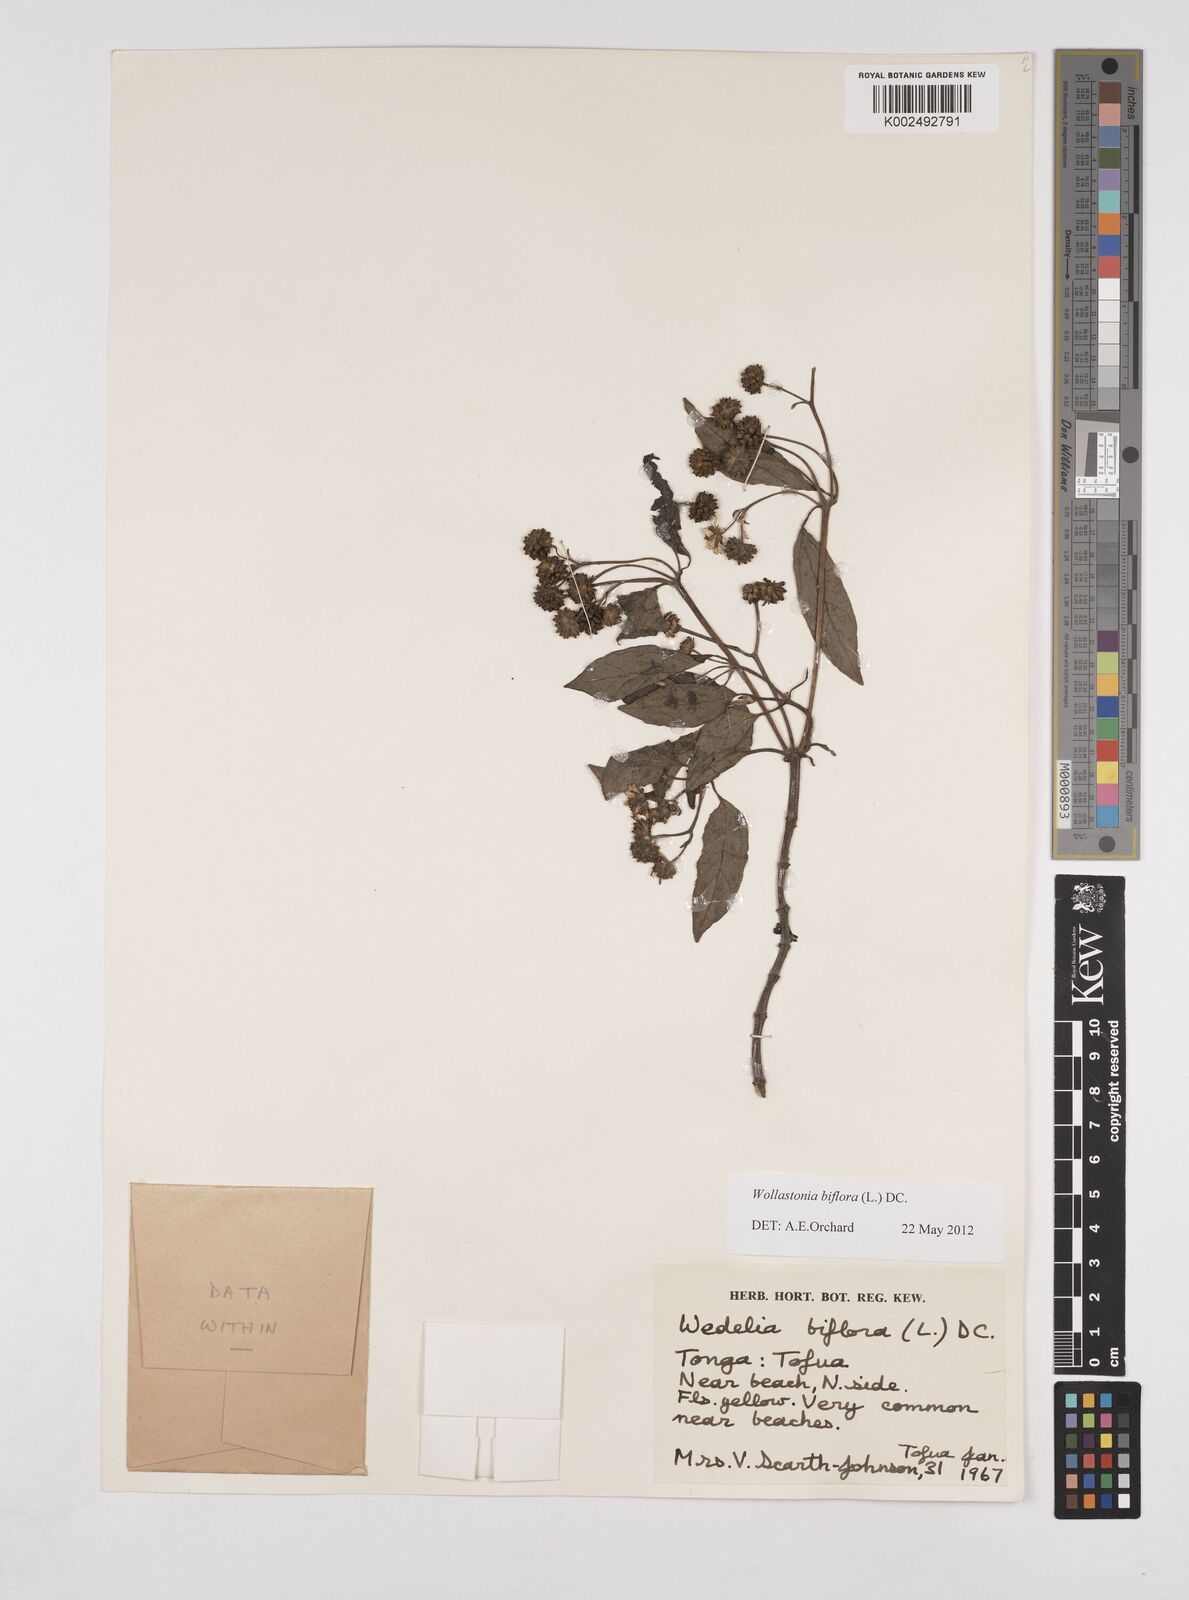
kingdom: Plantae
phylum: Tracheophyta
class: Magnoliopsida
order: Asterales
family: Asteraceae
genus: Wollastonia
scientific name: Wollastonia biflora
